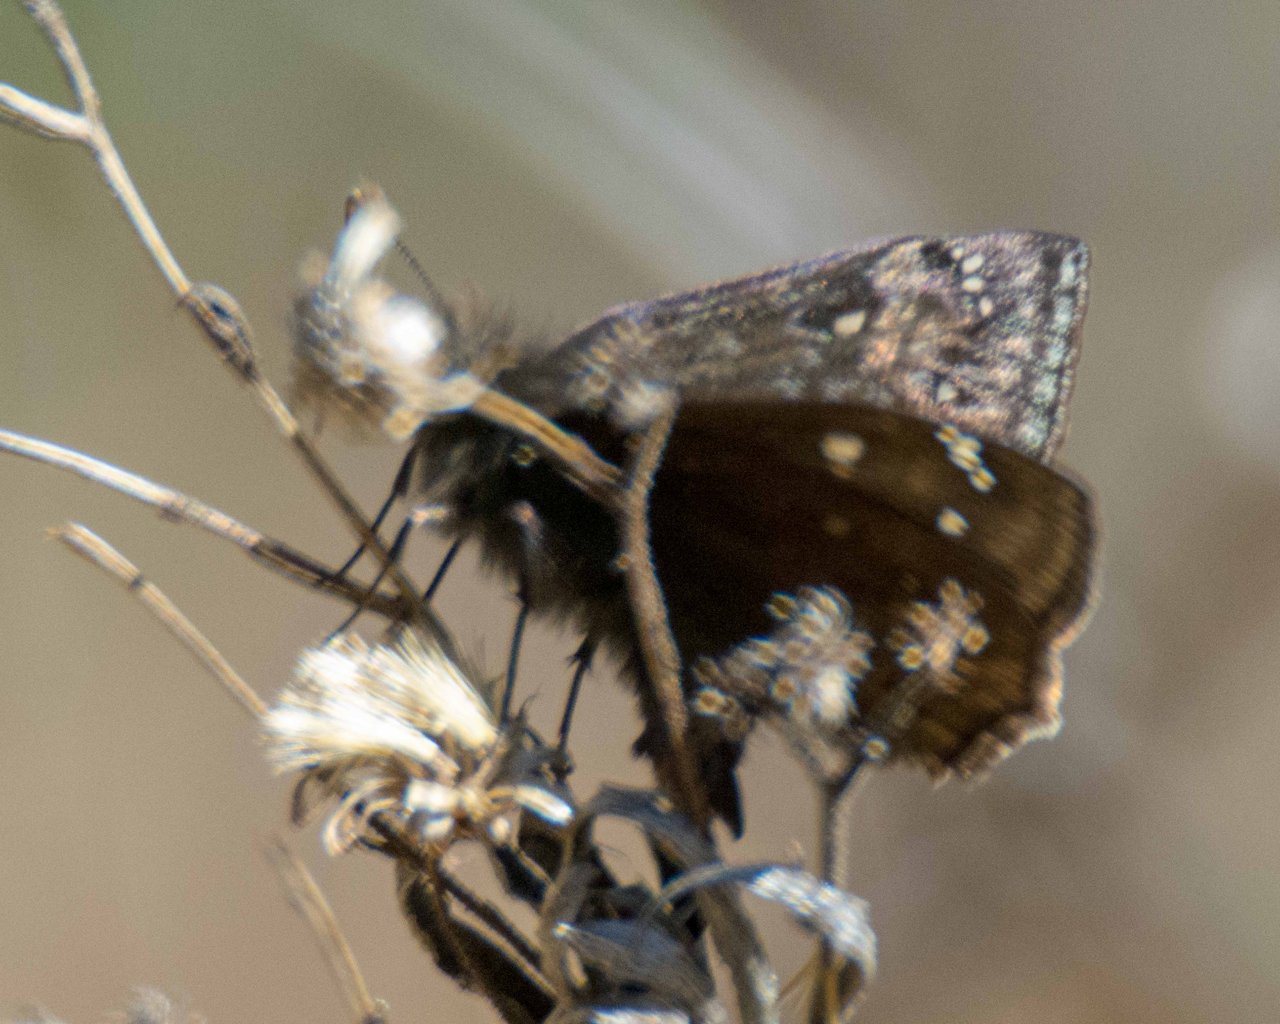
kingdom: Animalia
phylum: Arthropoda
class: Insecta
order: Lepidoptera
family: Hesperiidae
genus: Gesta
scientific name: Gesta
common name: Juvenal's Duskywing
